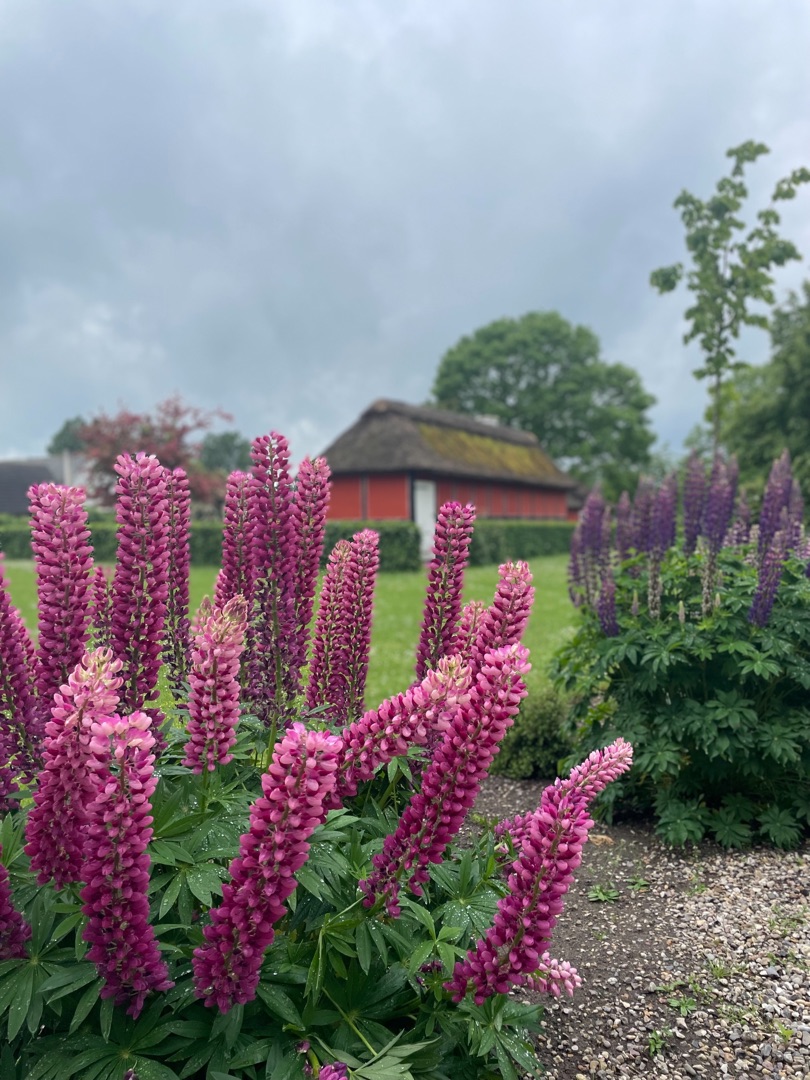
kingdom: Plantae
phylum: Tracheophyta
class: Magnoliopsida
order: Fabales
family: Fabaceae
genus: Lupinus
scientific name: Lupinus polyphyllus
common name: Mangebladet lupin
